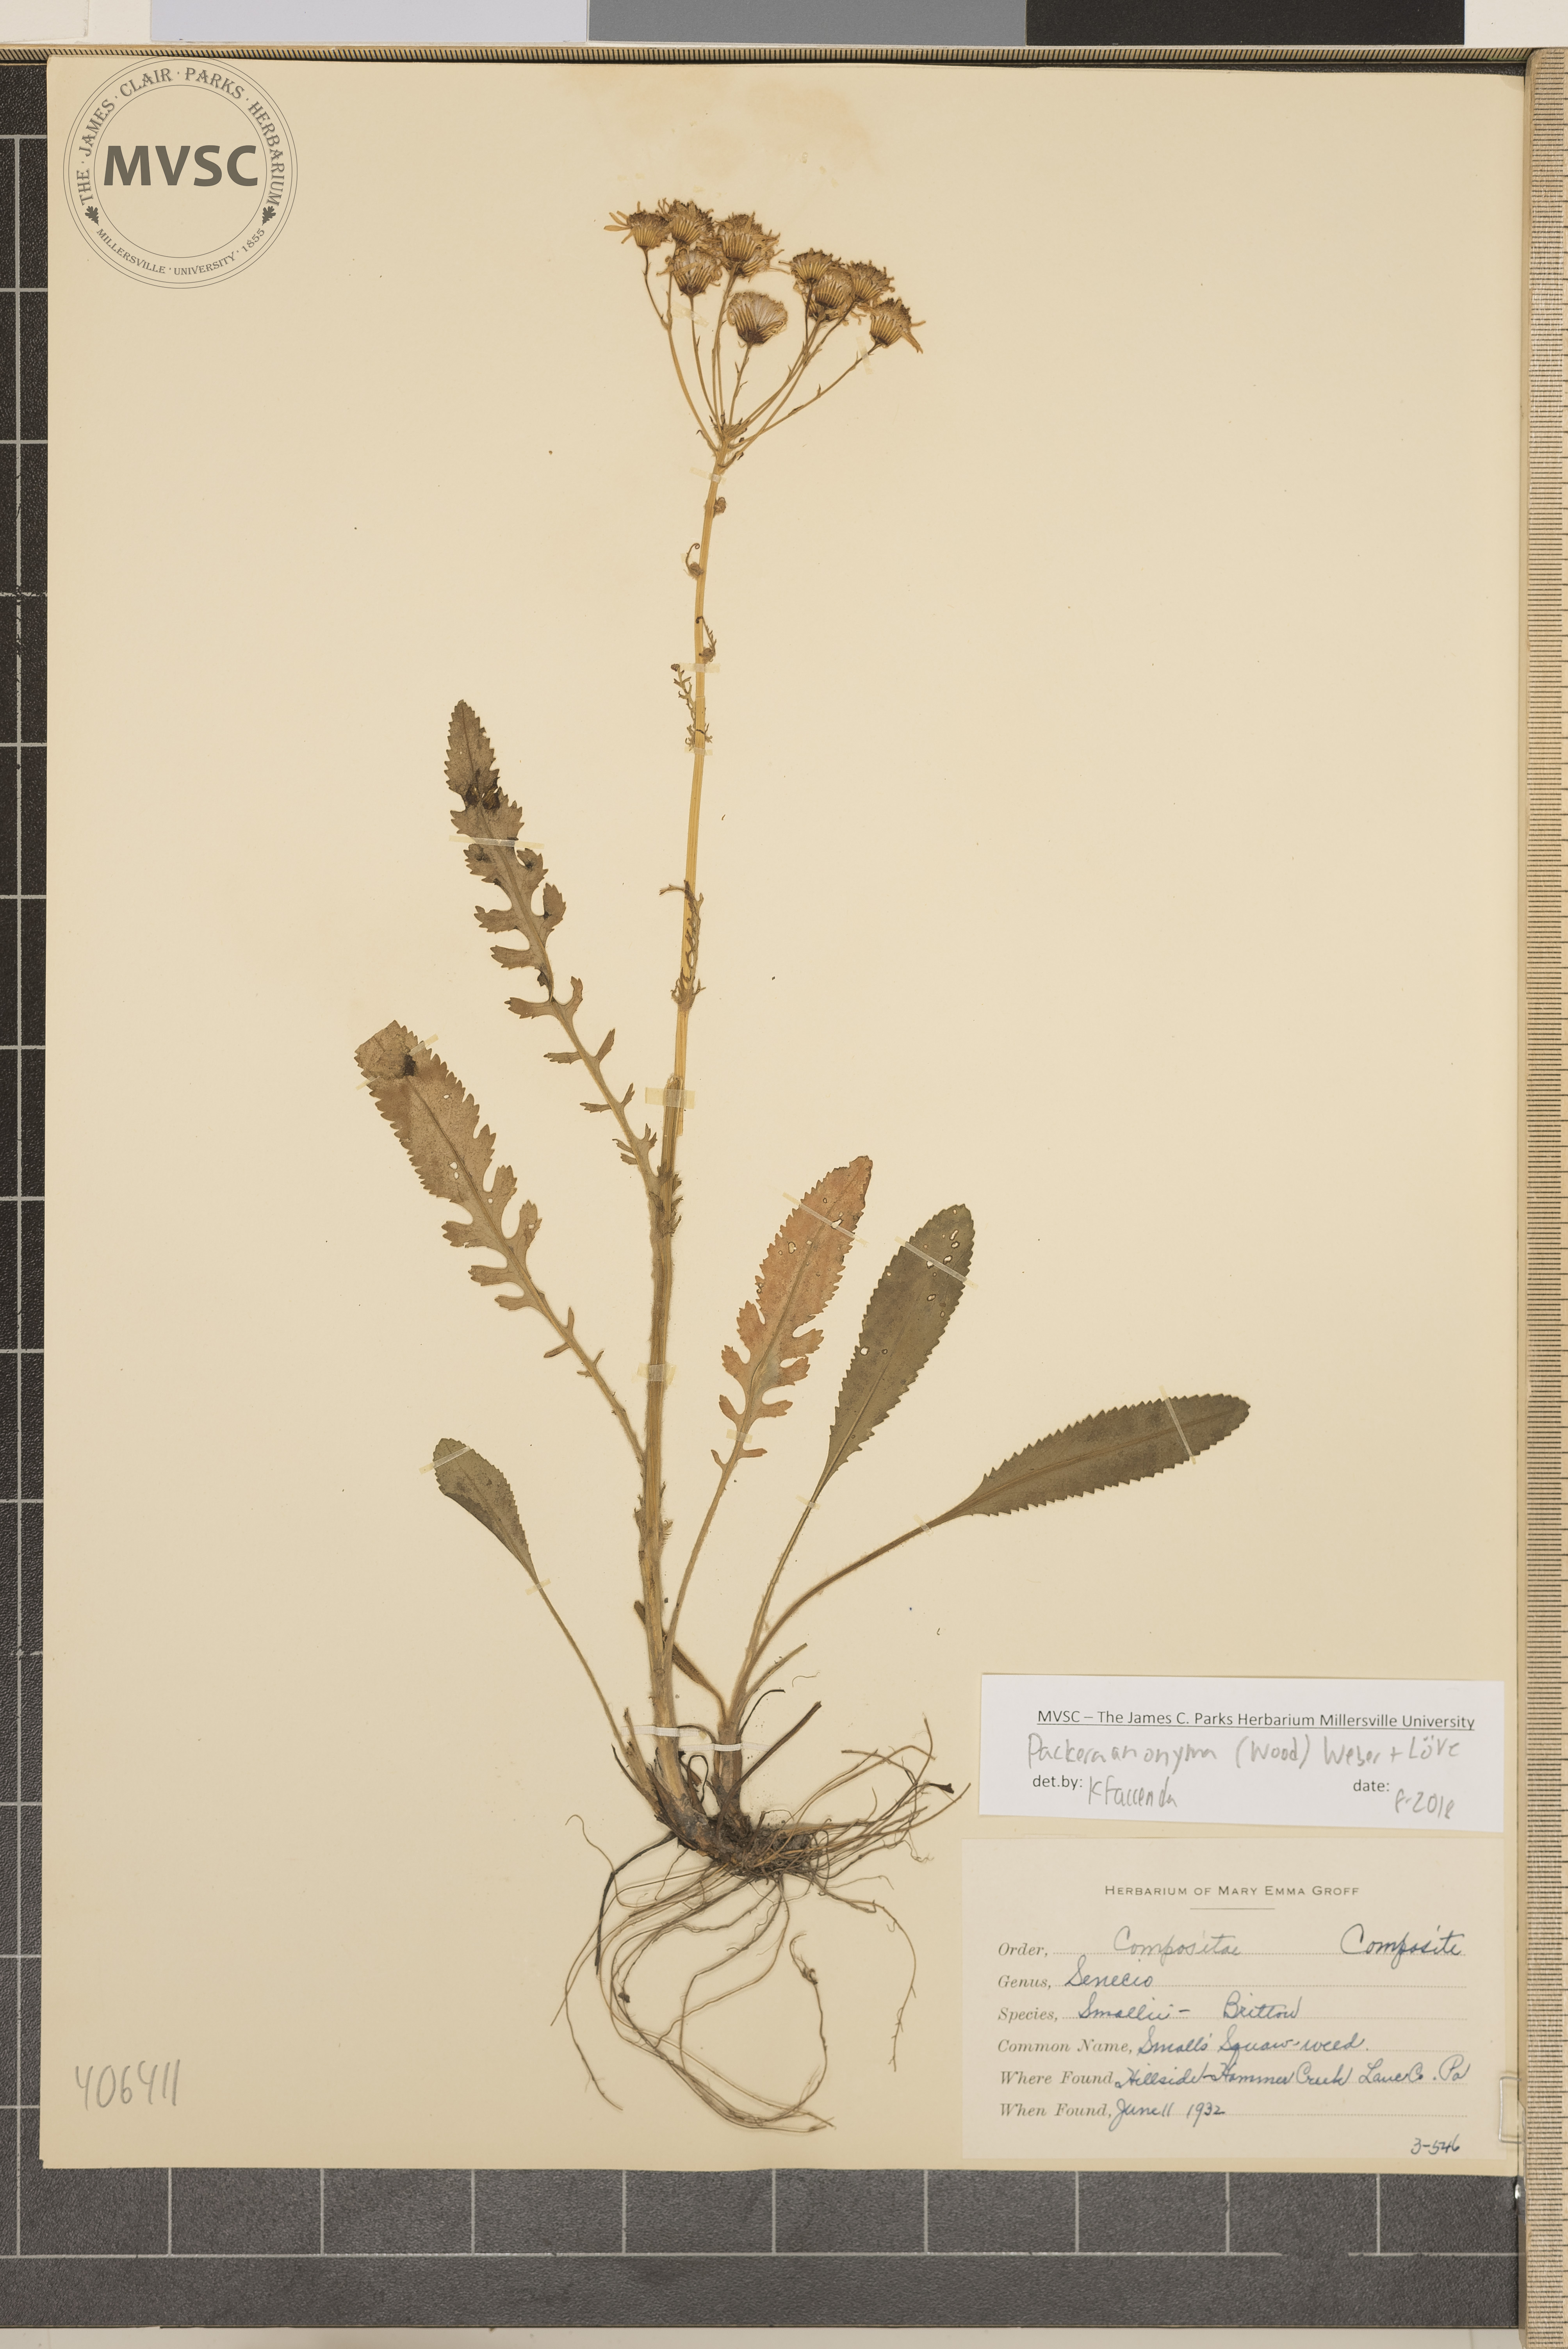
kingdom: Plantae
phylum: Tracheophyta
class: Magnoliopsida
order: Asterales
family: Asteraceae
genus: Packera
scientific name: Packera anonyma
